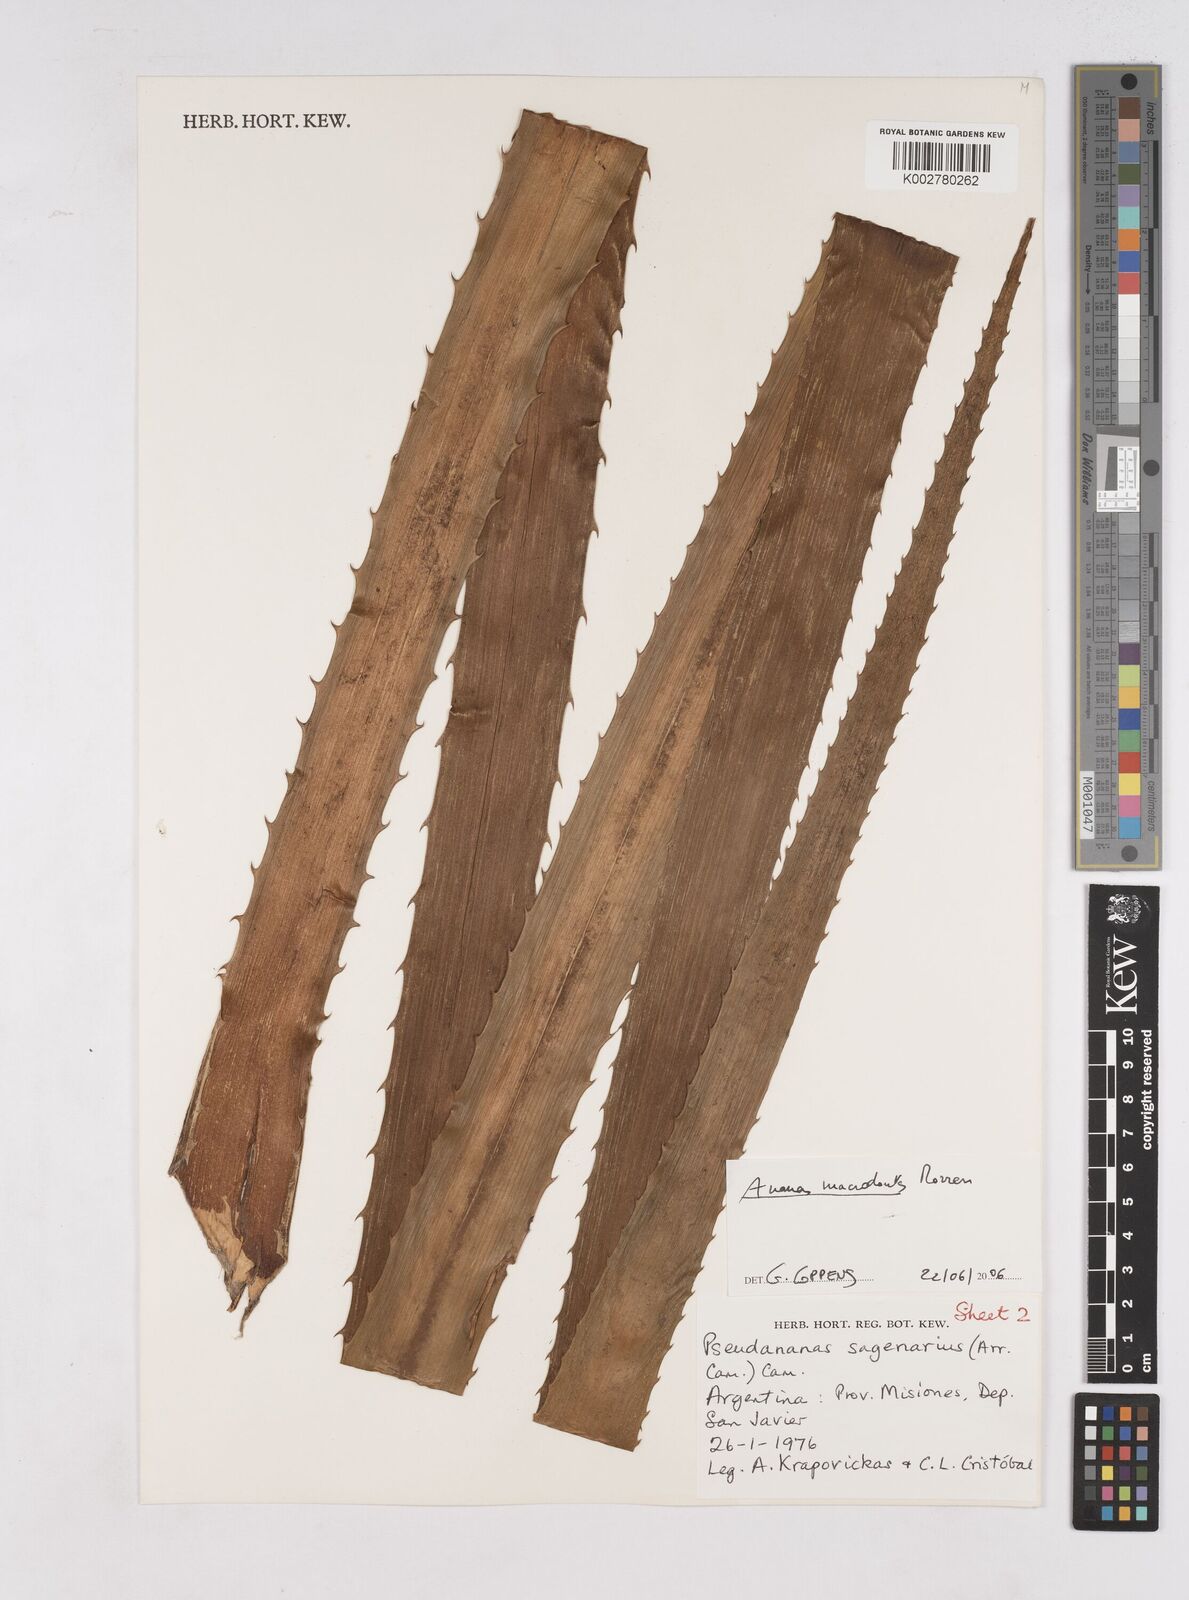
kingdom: Plantae
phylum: Tracheophyta
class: Liliopsida
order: Poales
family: Bromeliaceae
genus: Ananas
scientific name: Ananas macrodontes
